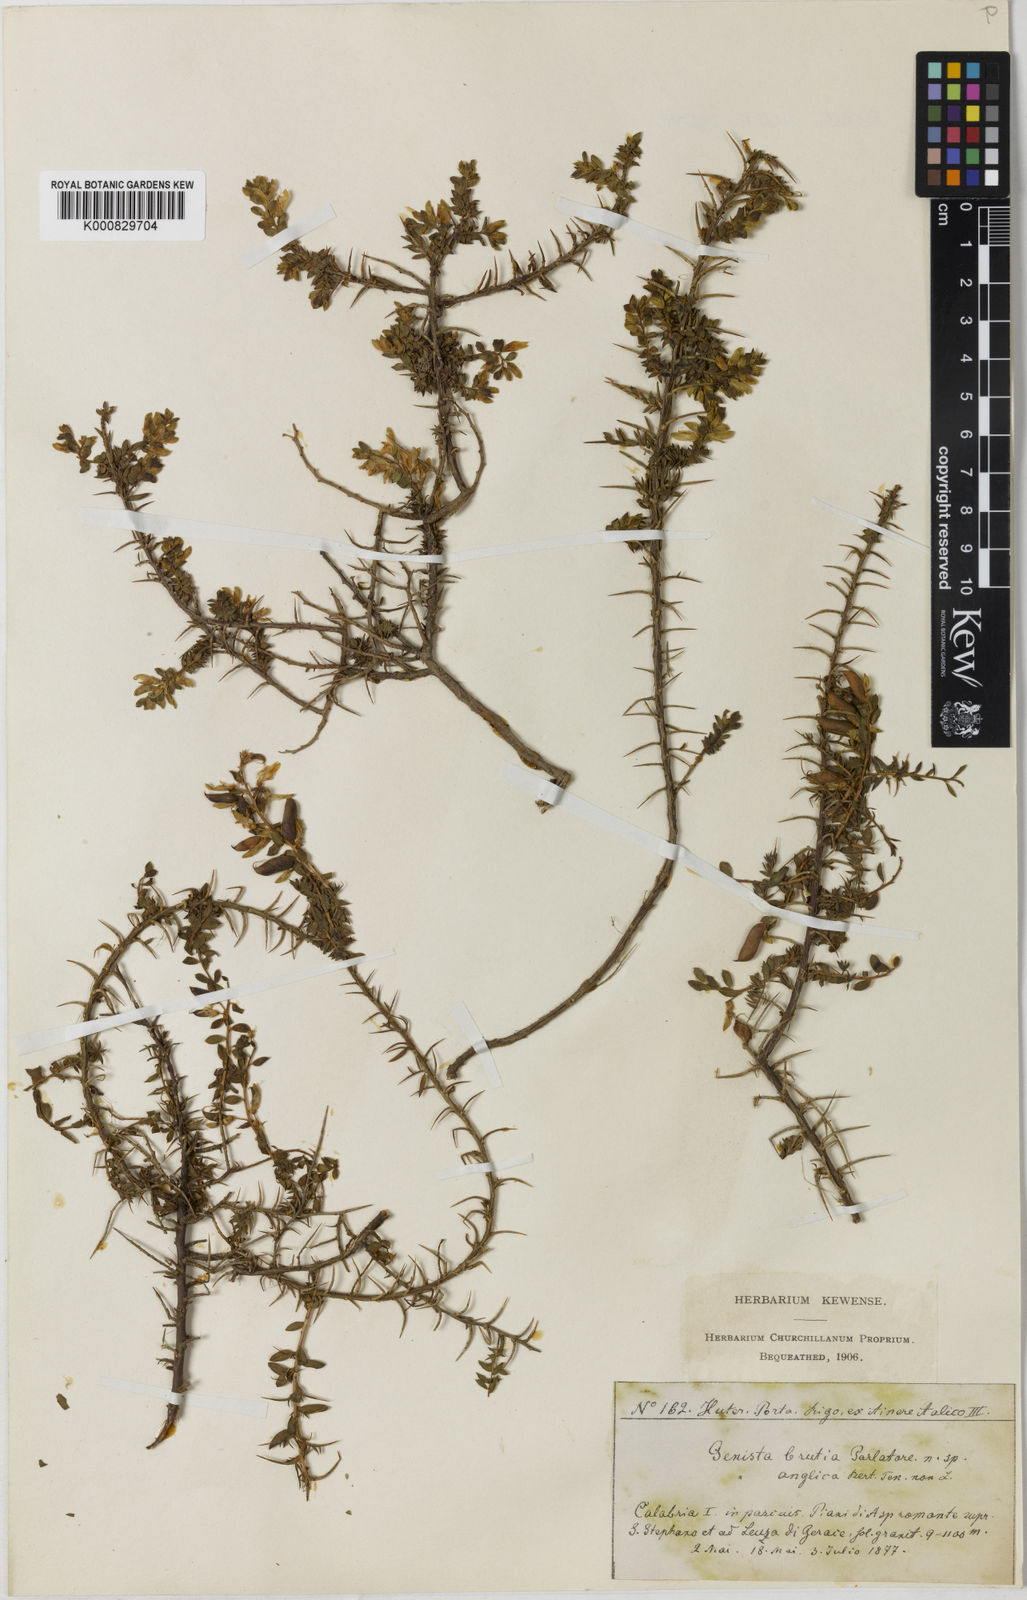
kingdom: Plantae
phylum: Tracheophyta
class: Magnoliopsida
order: Fabales
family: Fabaceae
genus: Genista
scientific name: Genista anglica
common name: Petty whin
